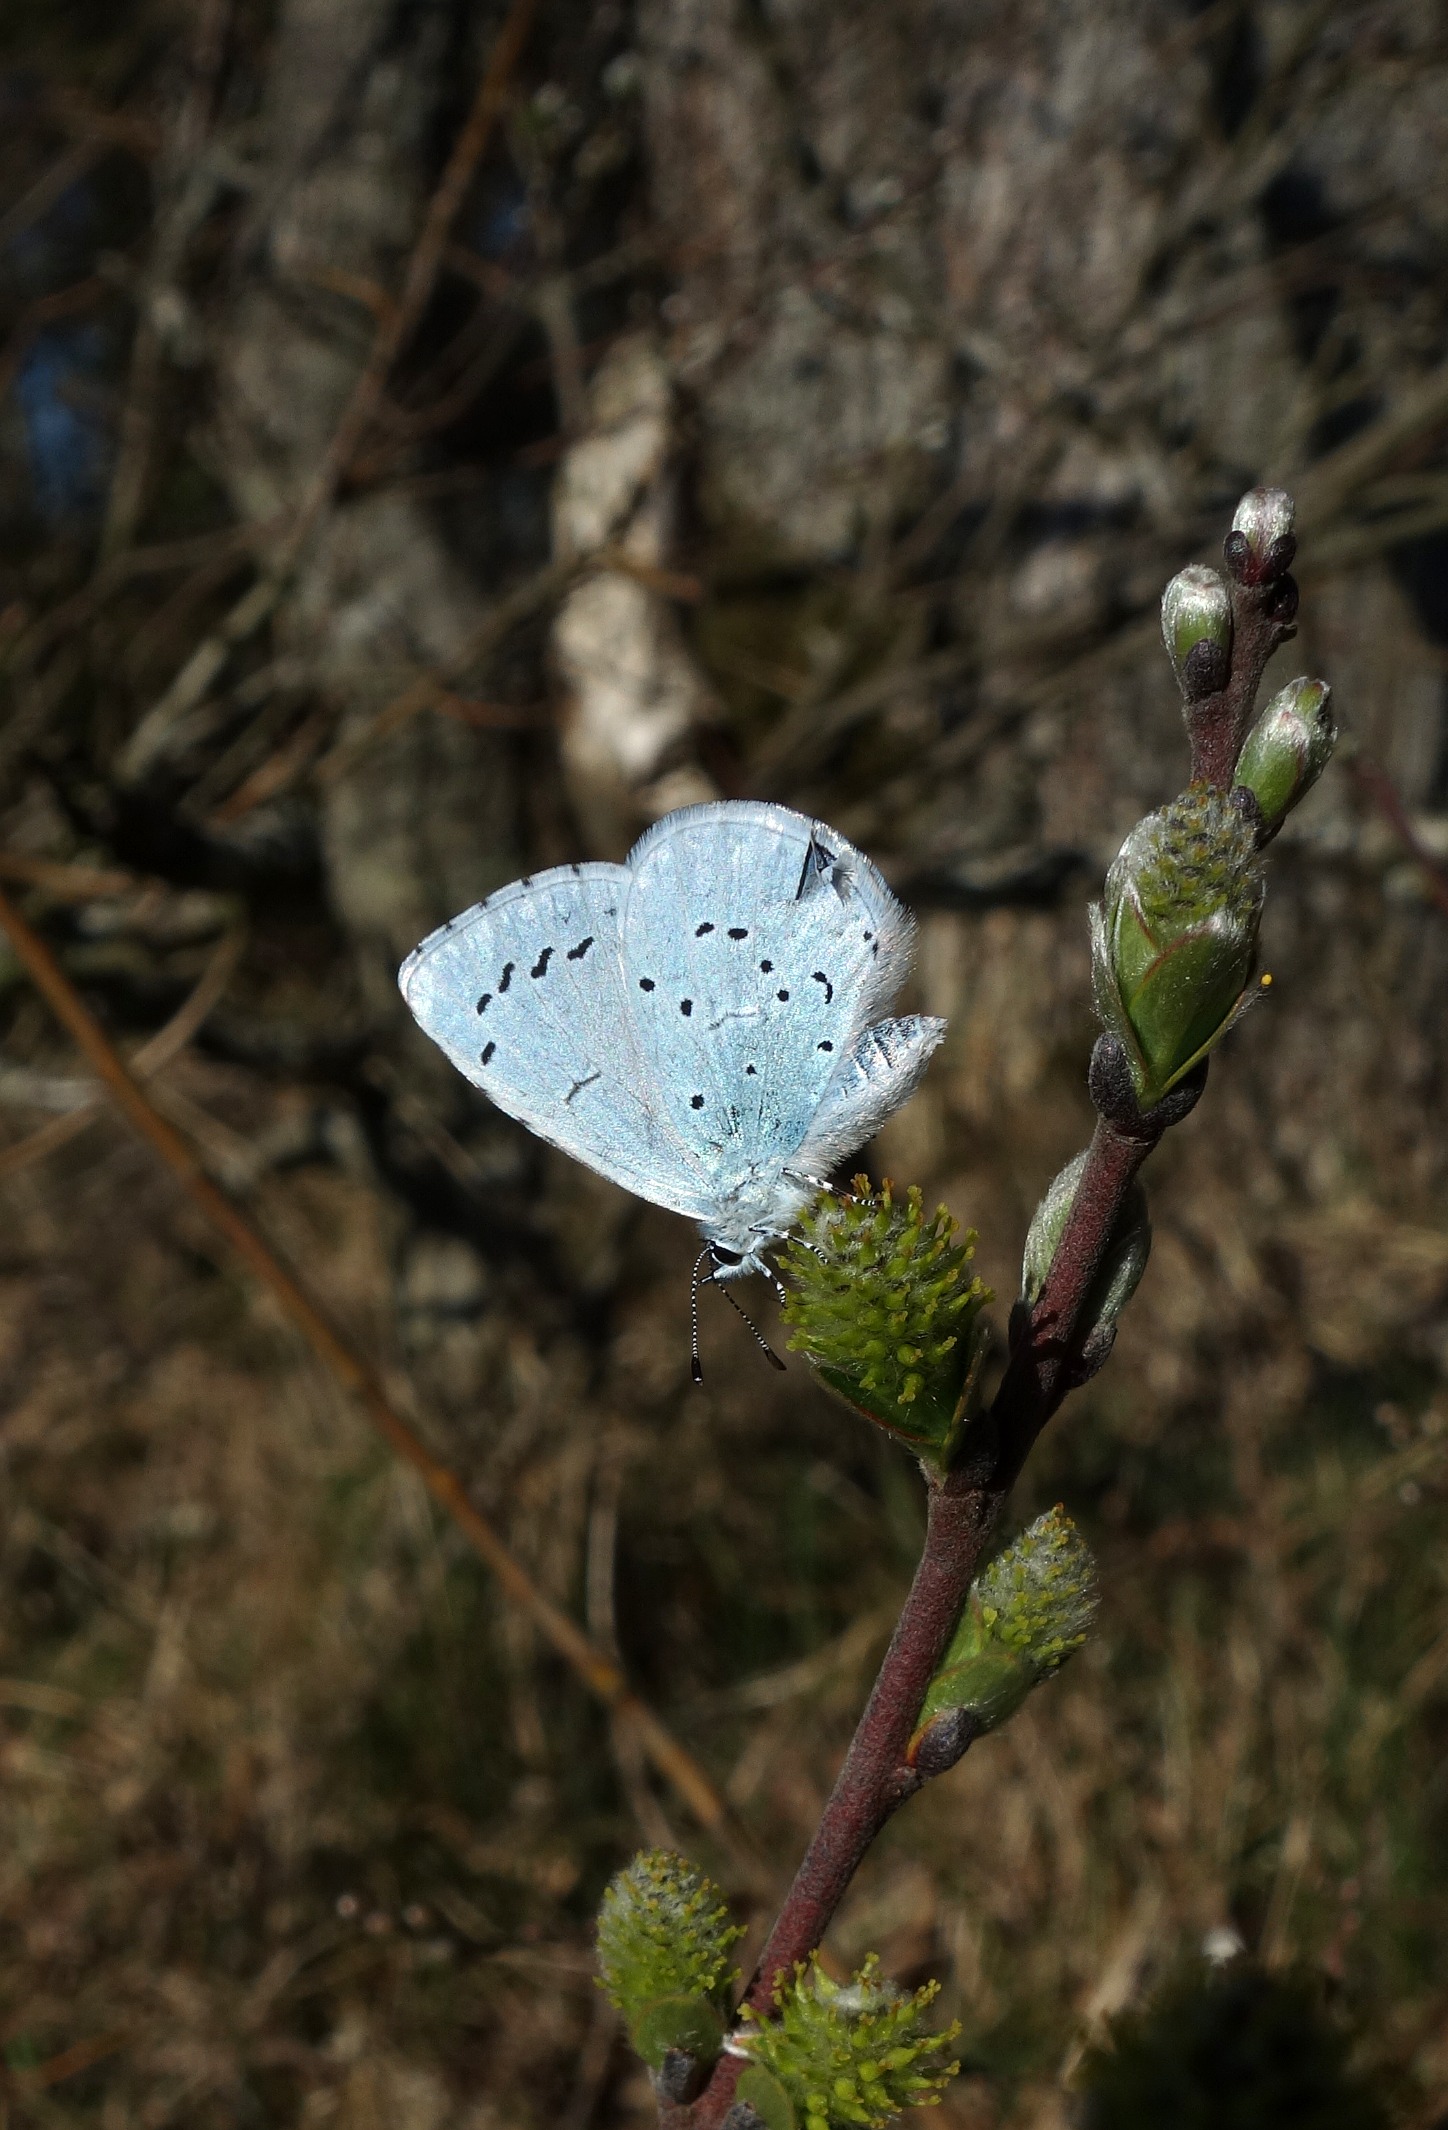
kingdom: Animalia
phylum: Arthropoda
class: Insecta
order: Lepidoptera
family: Lycaenidae
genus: Celastrina
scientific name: Celastrina argiolus
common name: Skovblåfugl
